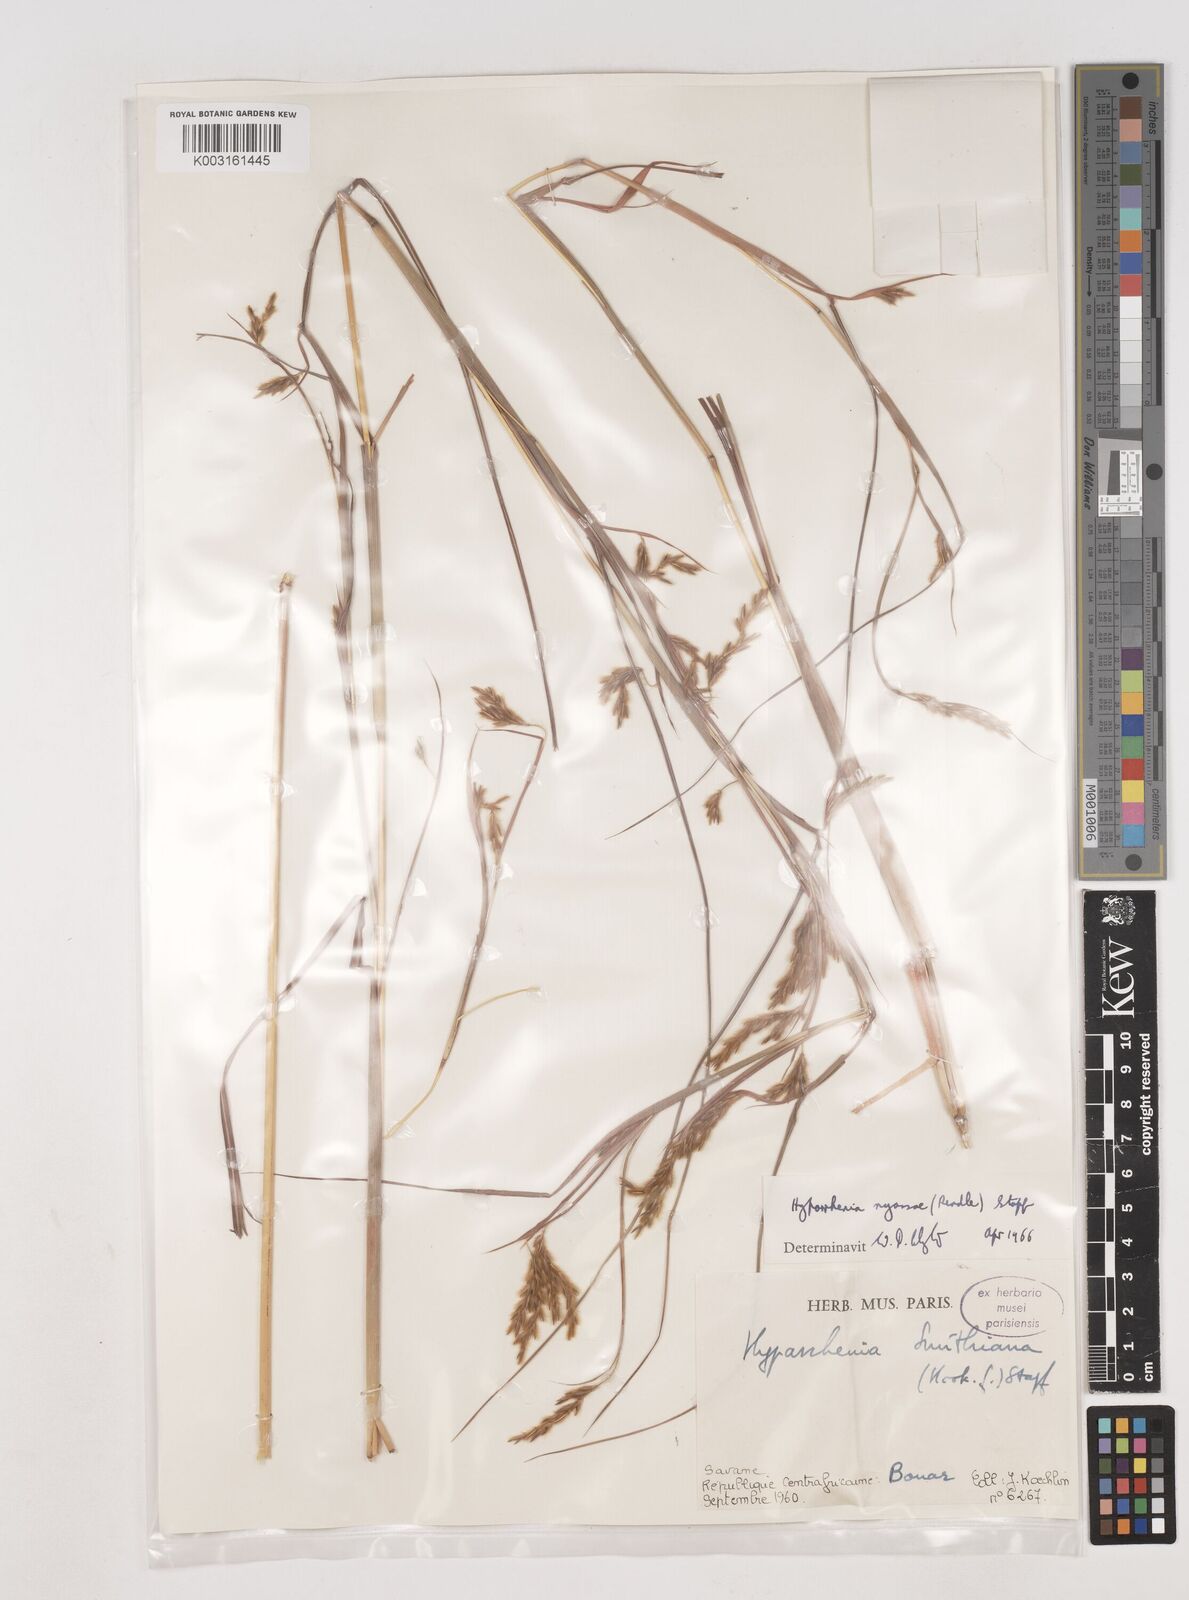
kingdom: Plantae
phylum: Tracheophyta
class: Liliopsida
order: Poales
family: Poaceae
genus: Hyparrhenia
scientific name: Hyparrhenia nyassae
